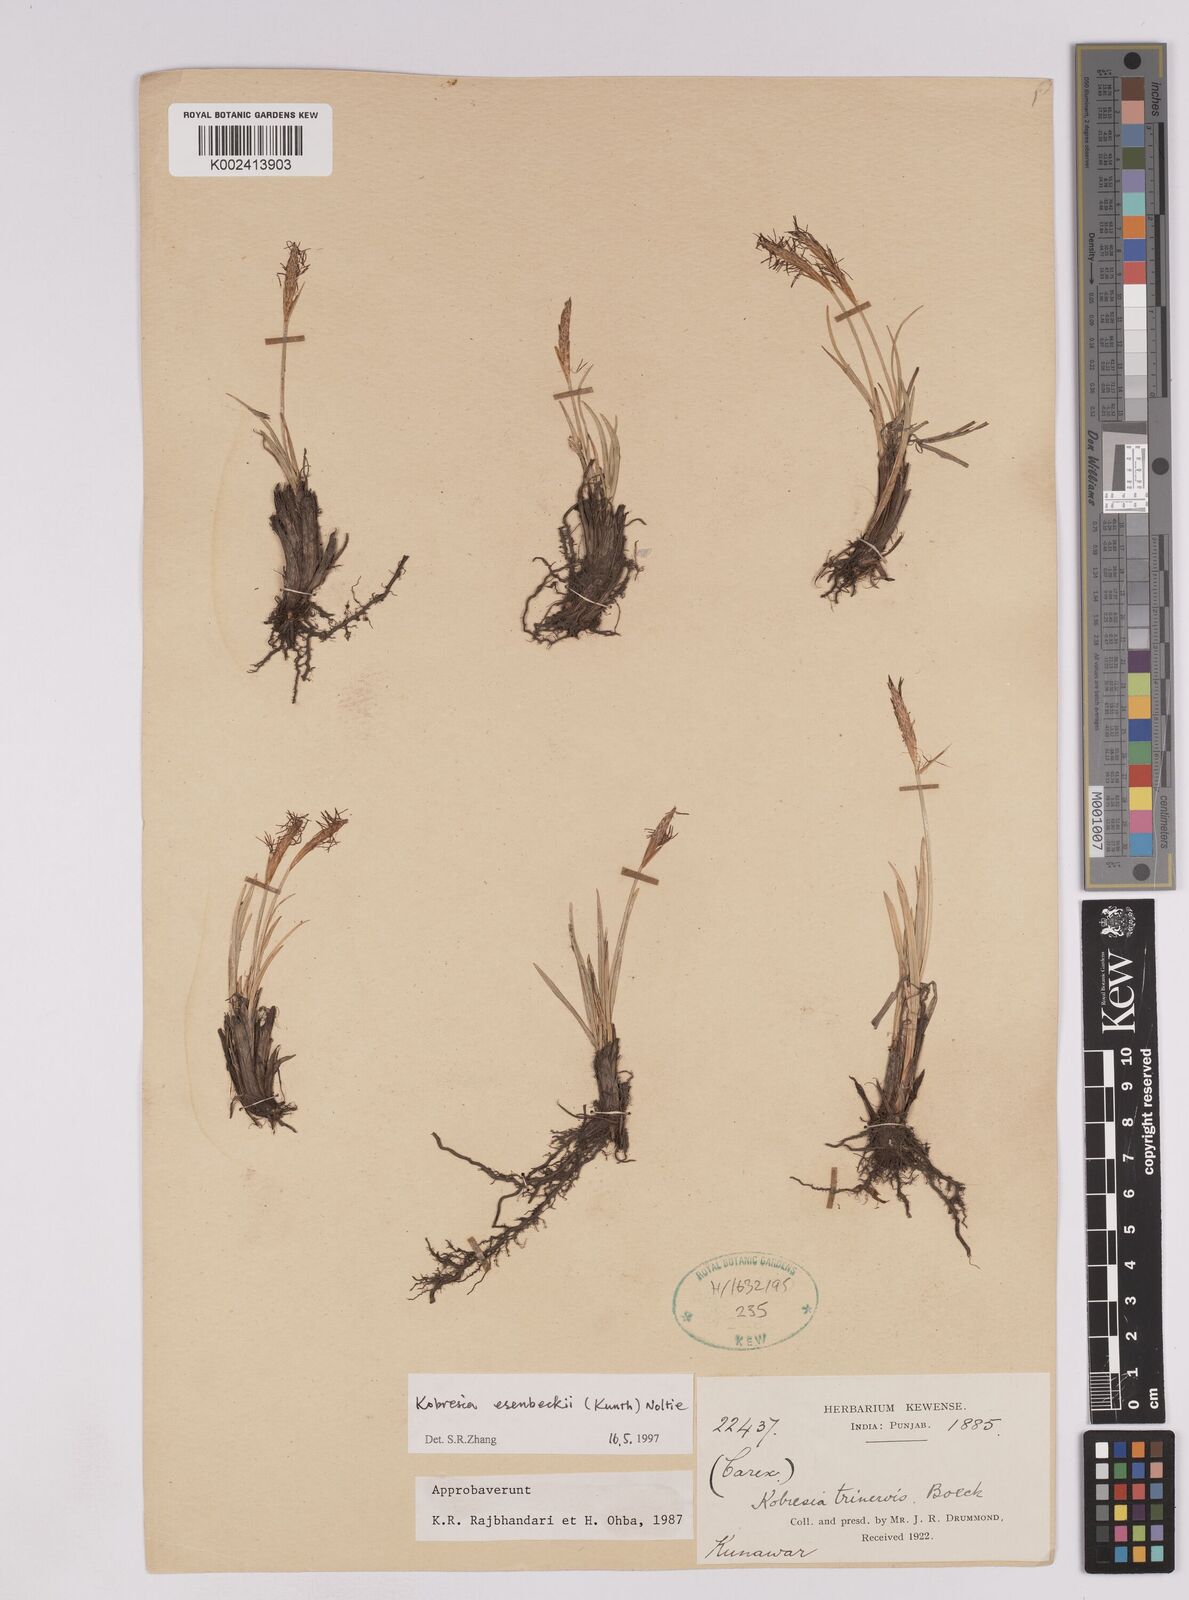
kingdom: Plantae
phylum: Tracheophyta
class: Liliopsida
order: Poales
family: Cyperaceae
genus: Carex
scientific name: Carex esenbeckii
